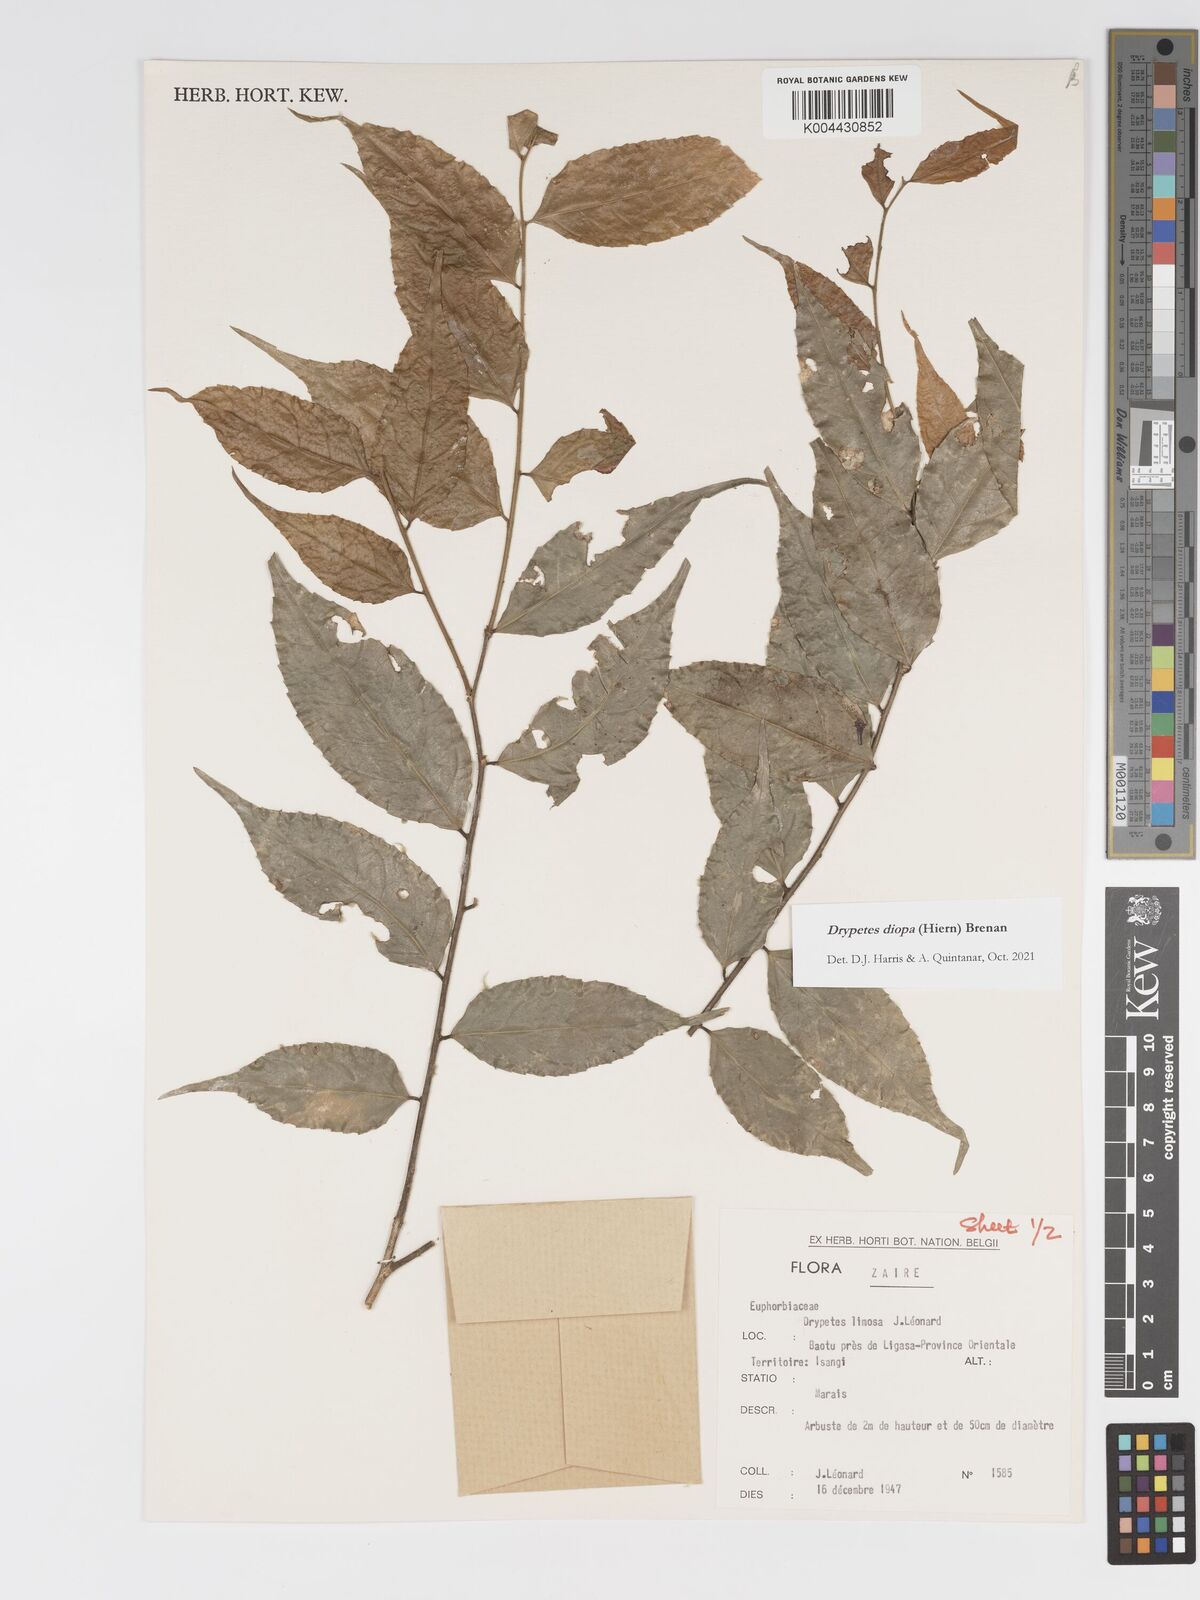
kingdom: Plantae
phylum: Tracheophyta
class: Magnoliopsida
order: Malpighiales
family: Putranjivaceae
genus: Drypetes
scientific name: Drypetes diopa
